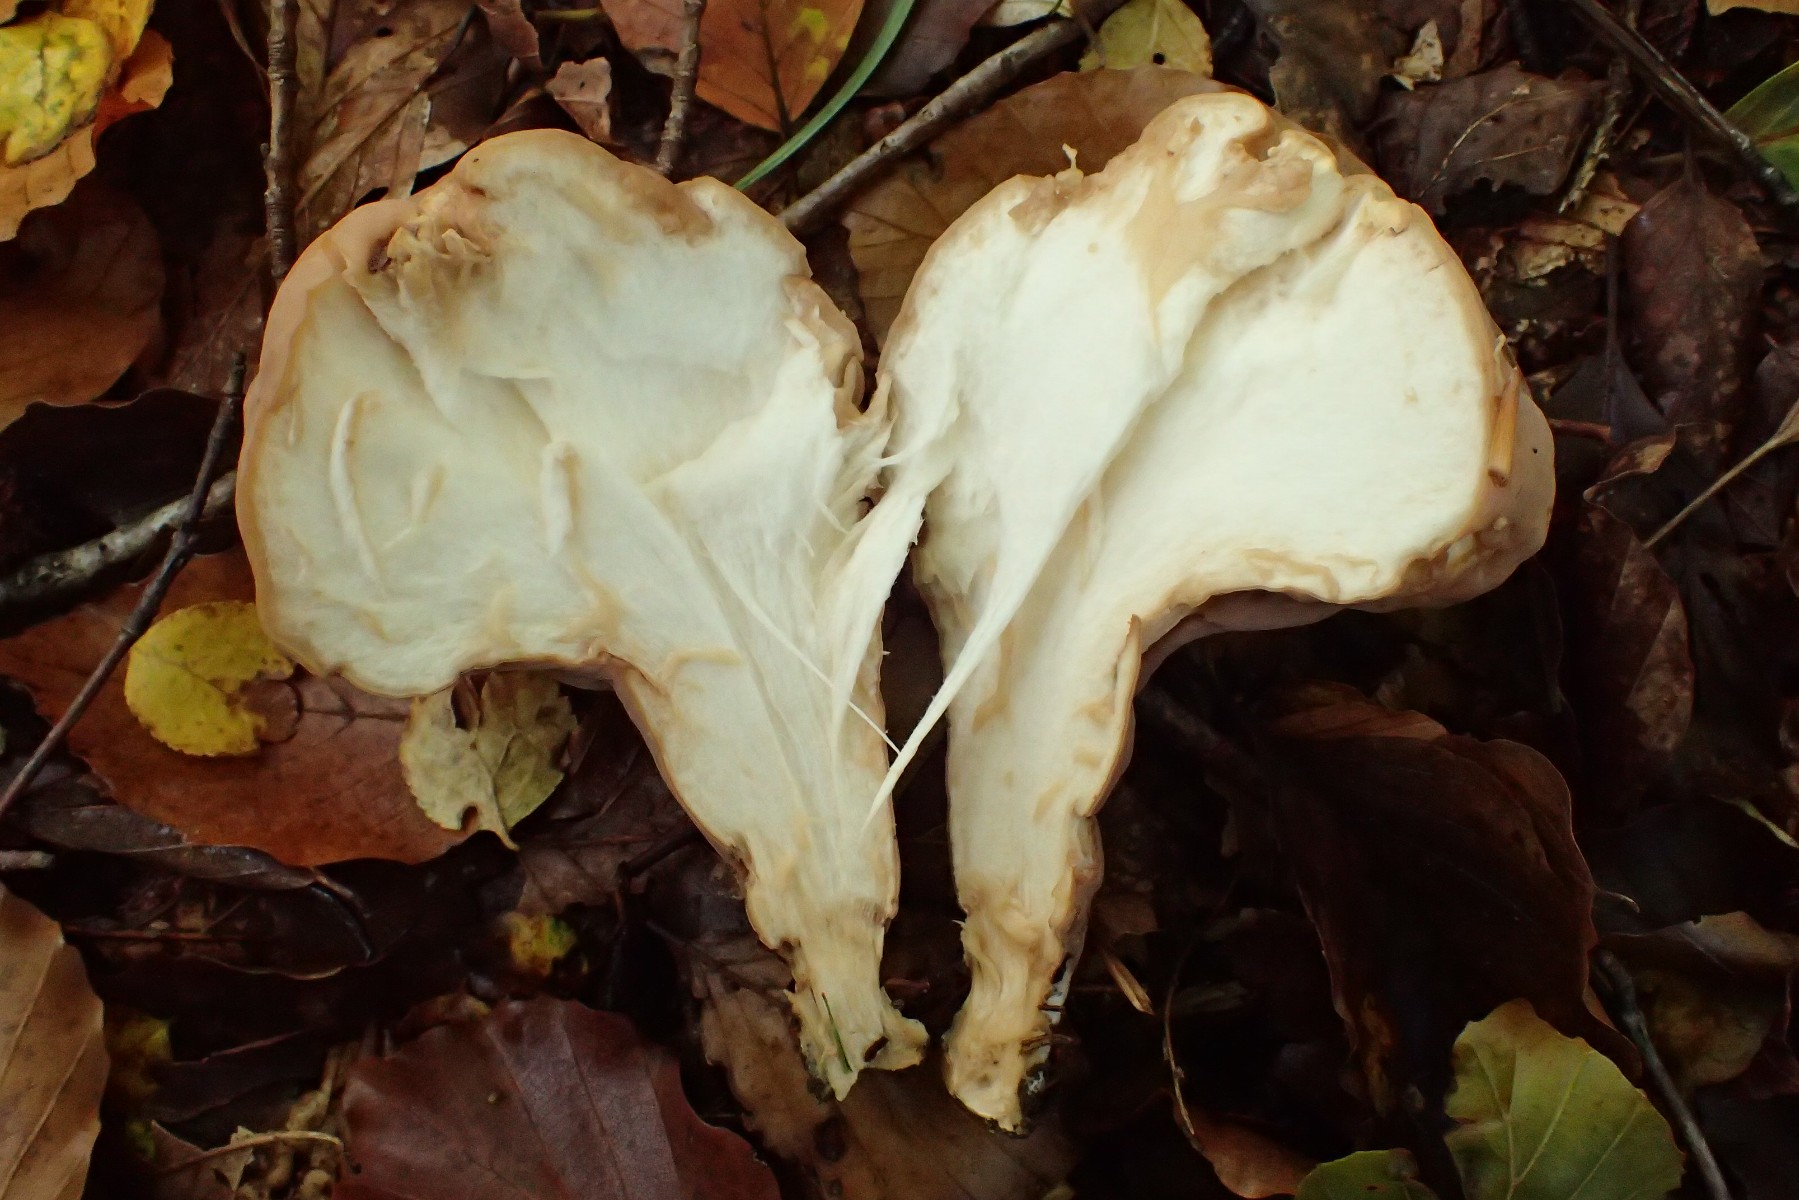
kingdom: Fungi
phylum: Basidiomycota
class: Agaricomycetes
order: Gomphales
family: Clavariadelphaceae
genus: Clavariadelphus
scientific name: Clavariadelphus pistillaris
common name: herkules-kæmpekølle
